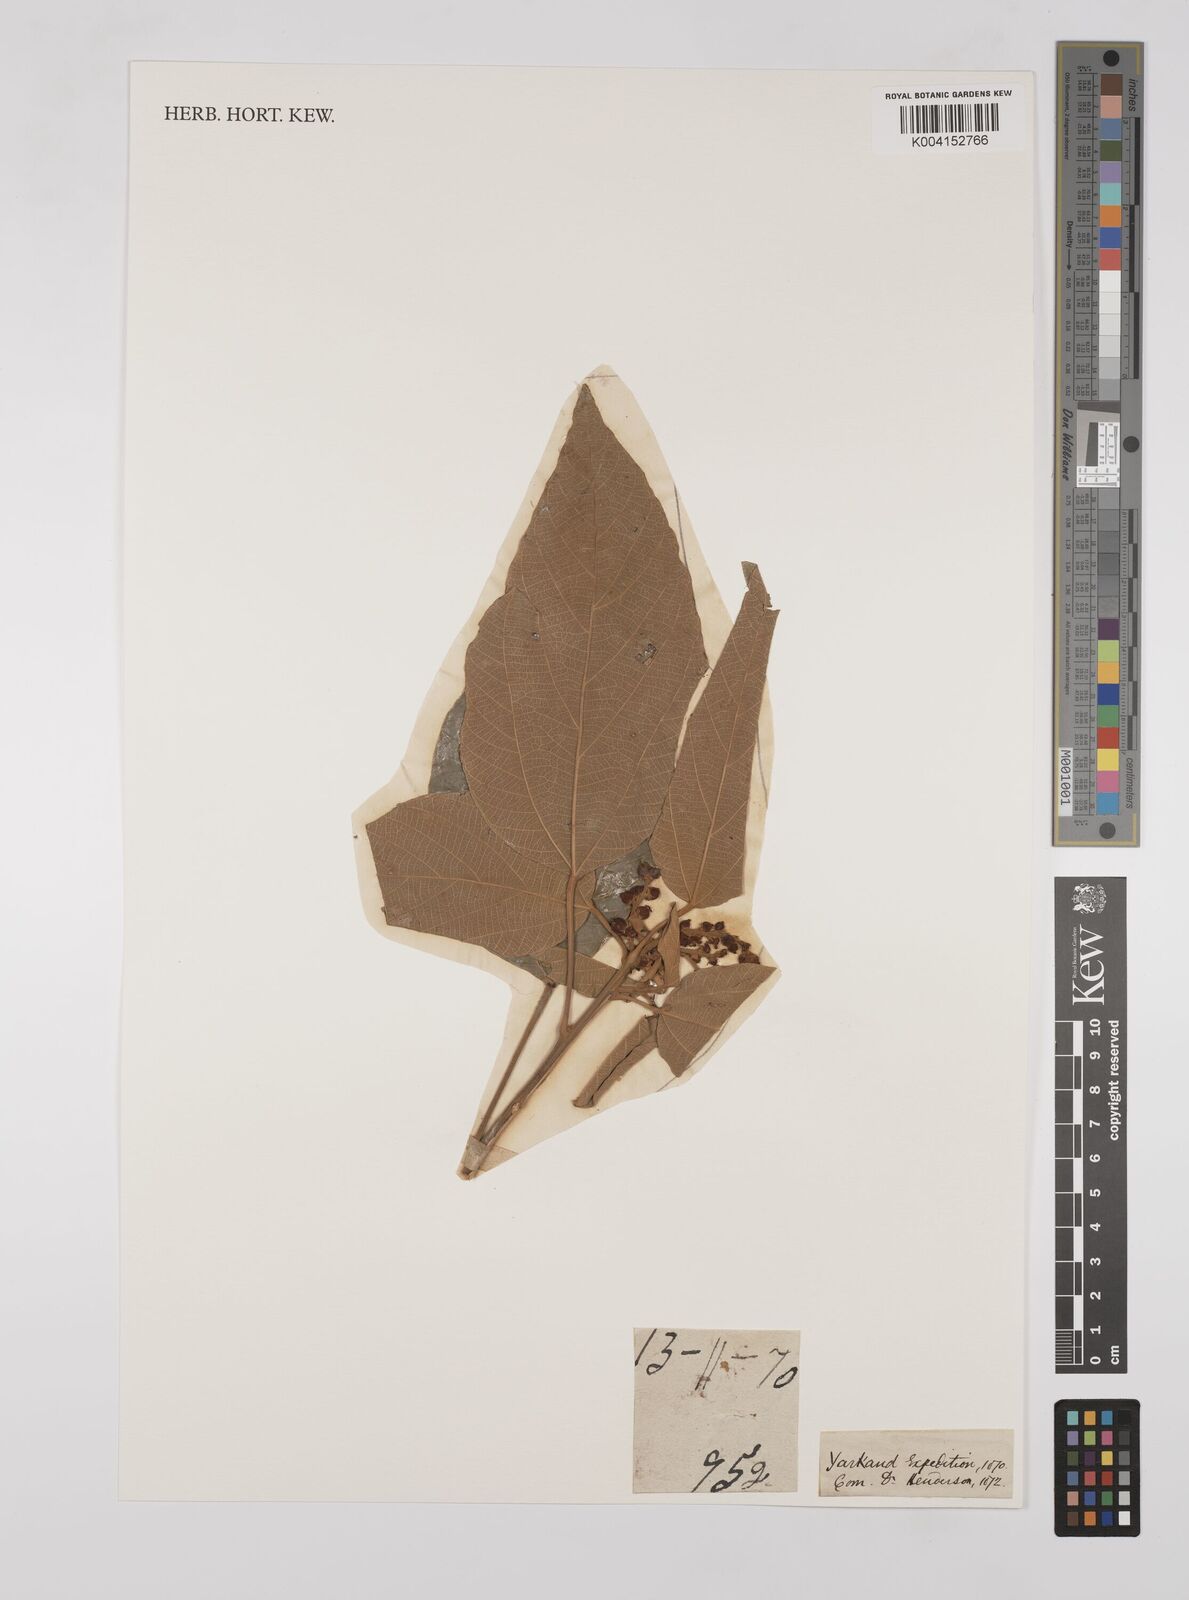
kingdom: Plantae
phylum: Tracheophyta
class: Magnoliopsida
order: Malpighiales
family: Euphorbiaceae
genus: Mallotus
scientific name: Mallotus philippensis
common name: Kamala tree
